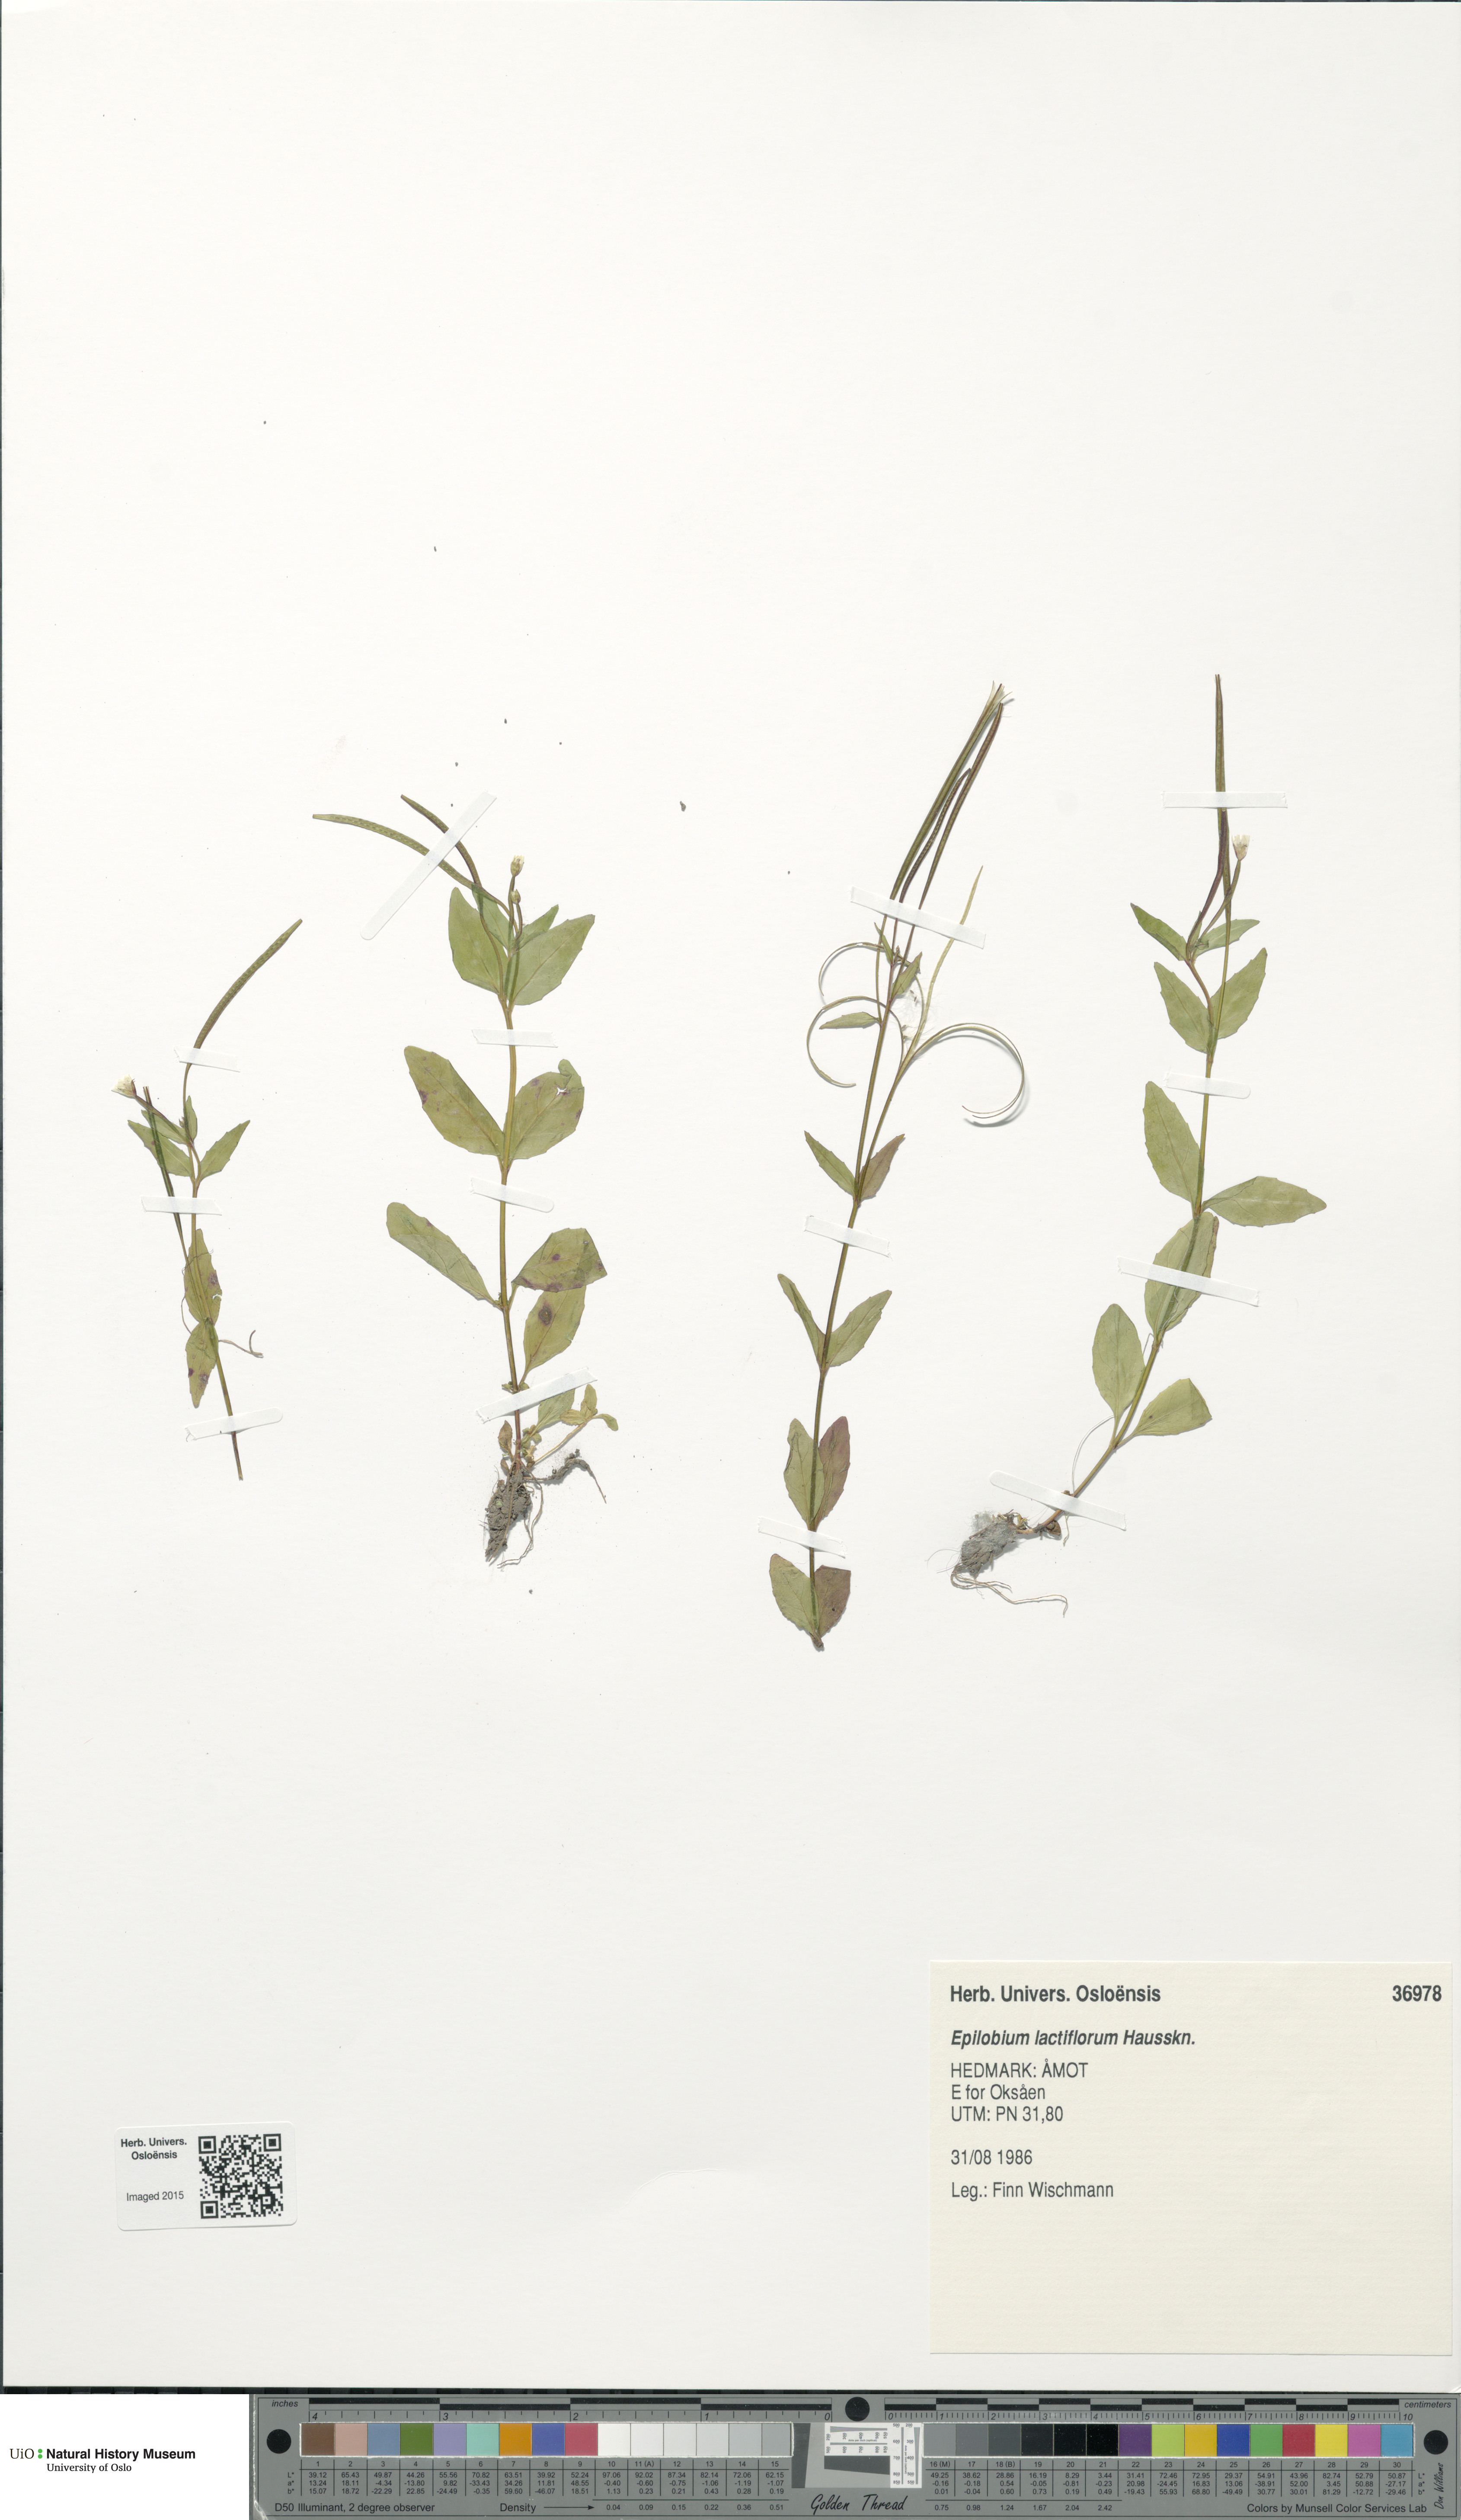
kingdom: Plantae
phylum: Tracheophyta
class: Magnoliopsida
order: Myrtales
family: Onagraceae
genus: Epilobium
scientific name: Epilobium lactiflorum
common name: Milkflower willowherb
